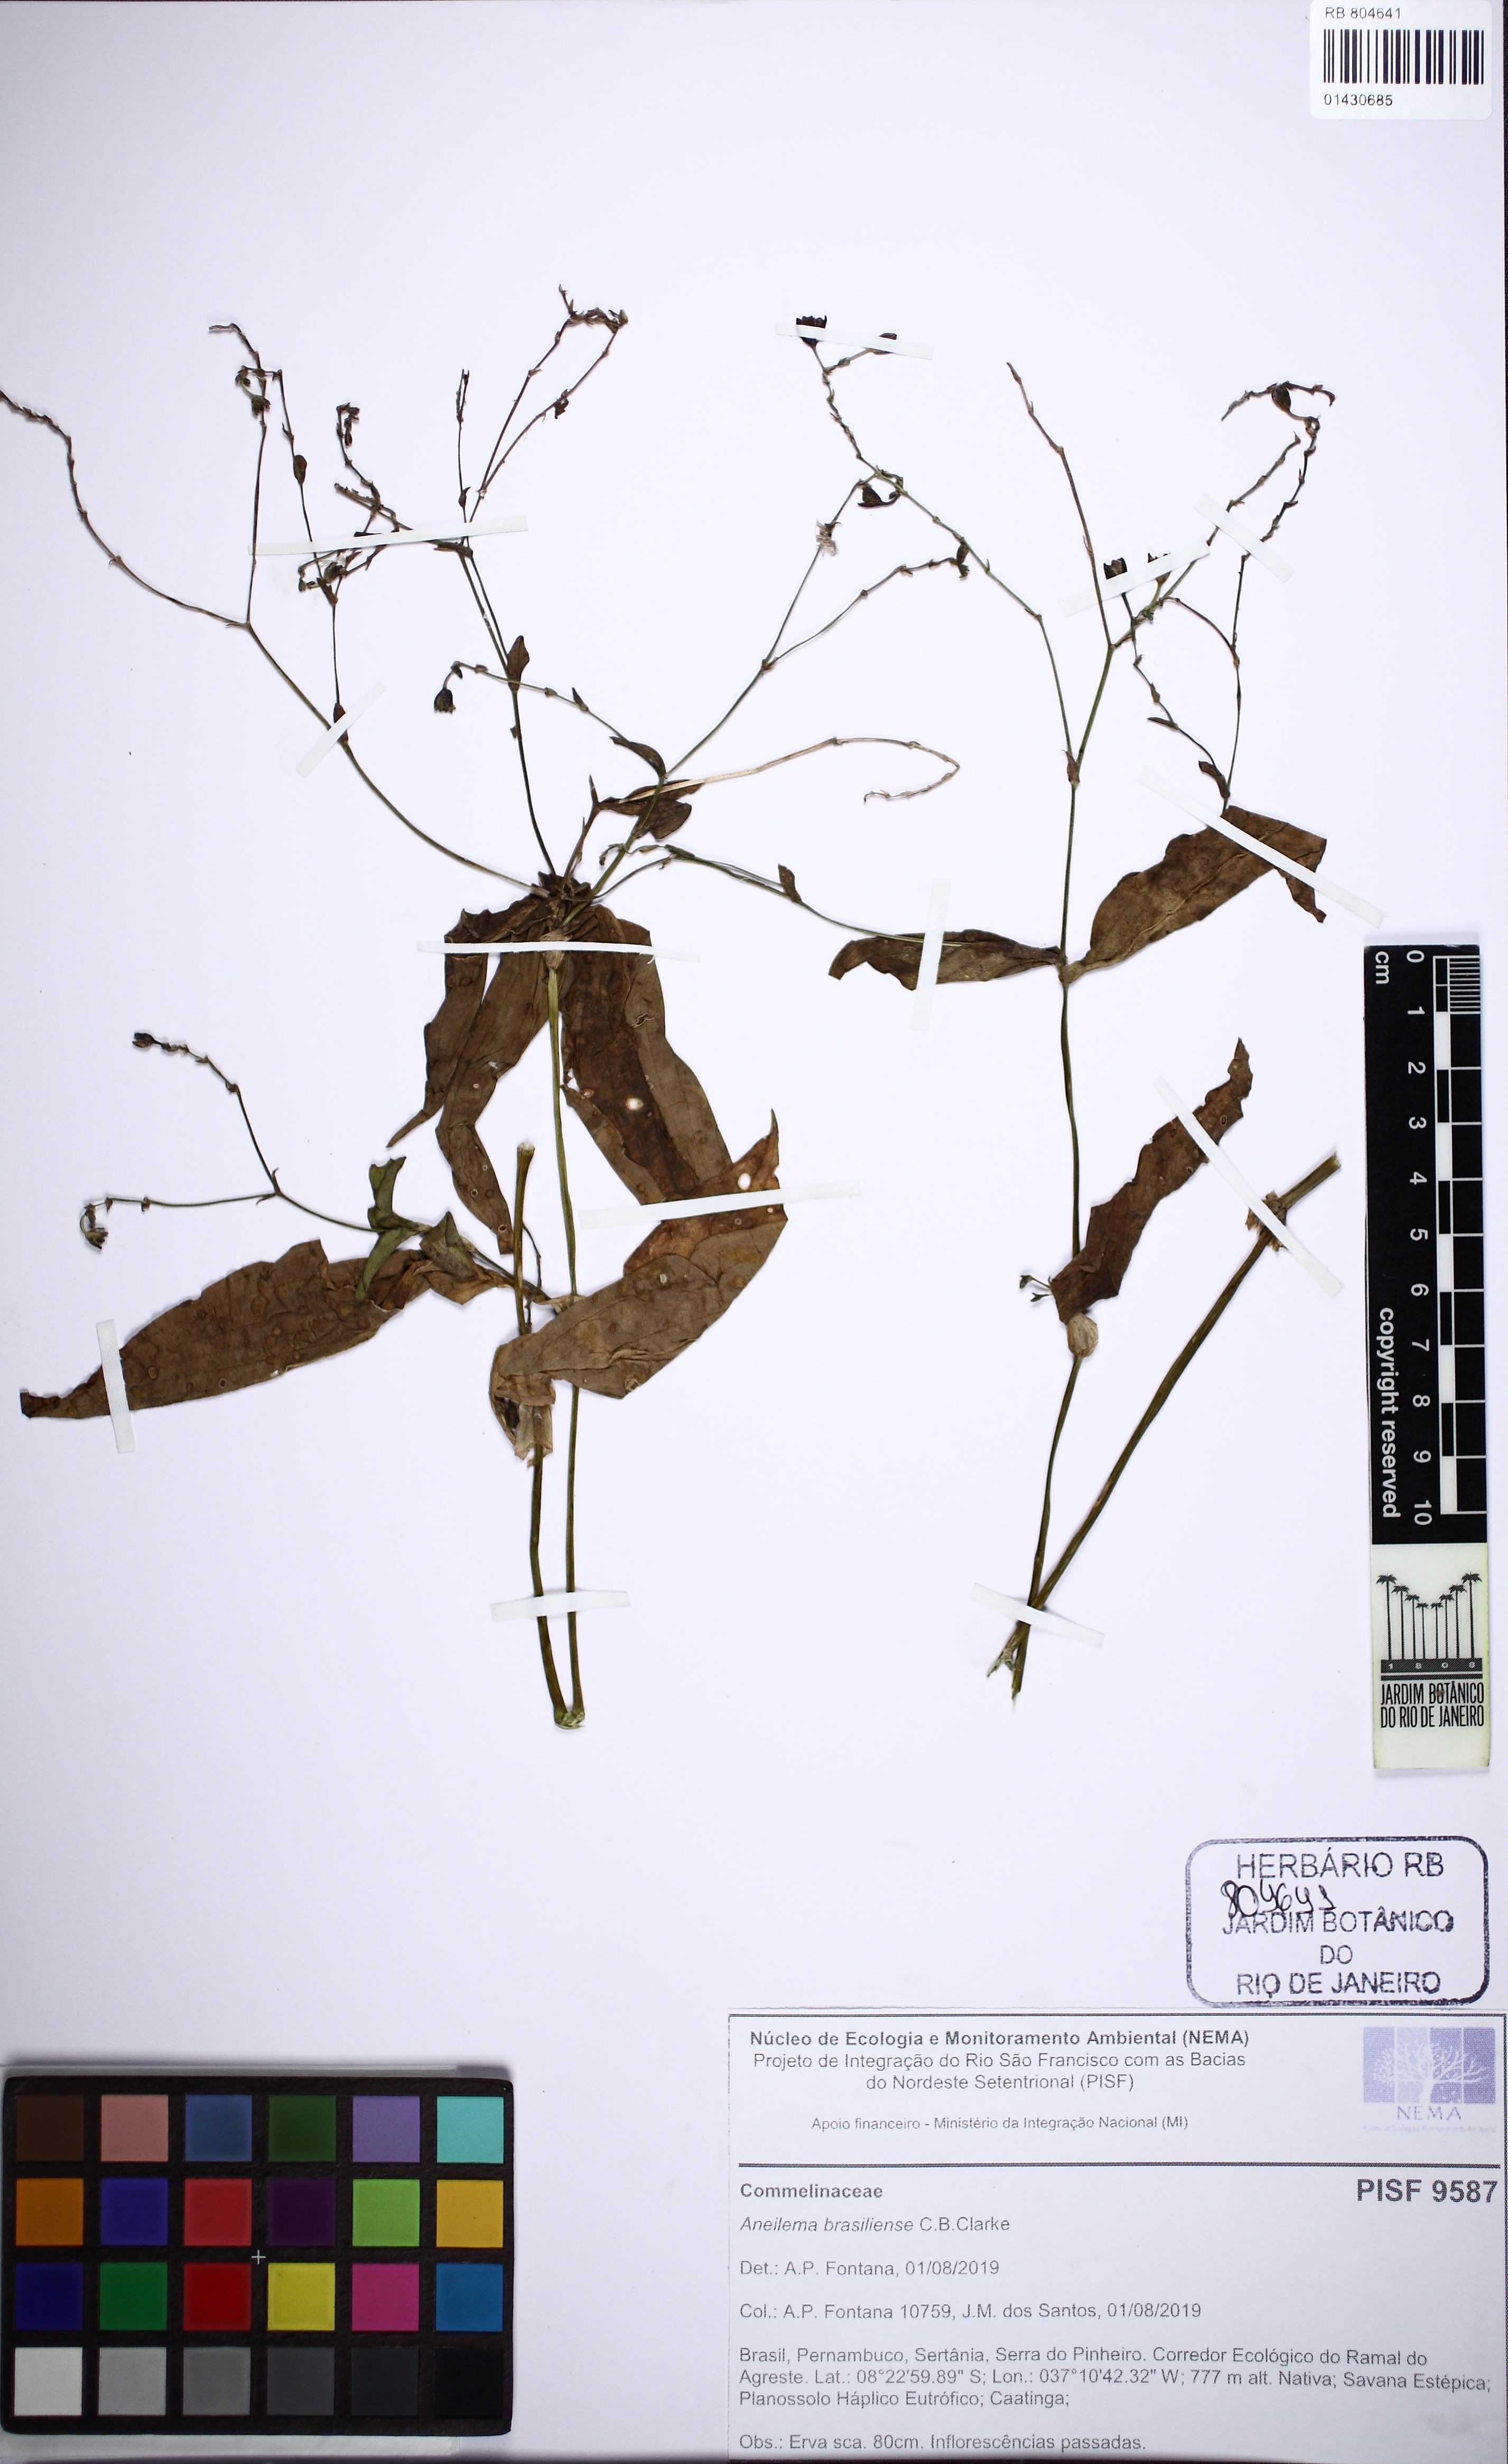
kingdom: Plantae
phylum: Tracheophyta
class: Liliopsida
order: Commelinales
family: Commelinaceae
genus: Aneilema
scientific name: Aneilema brasiliense
